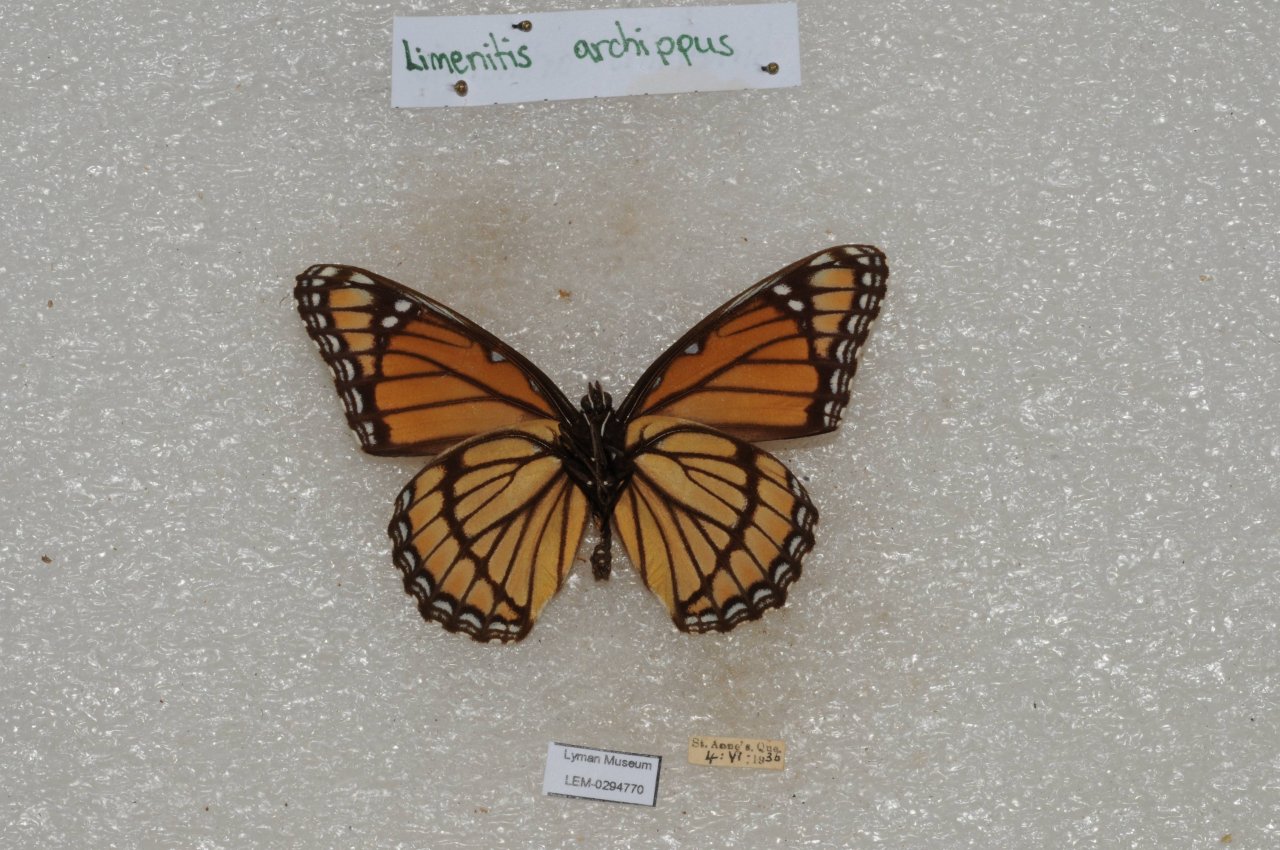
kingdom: Animalia
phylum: Arthropoda
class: Insecta
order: Lepidoptera
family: Nymphalidae
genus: Limenitis
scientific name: Limenitis archippus
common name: Viceroy
